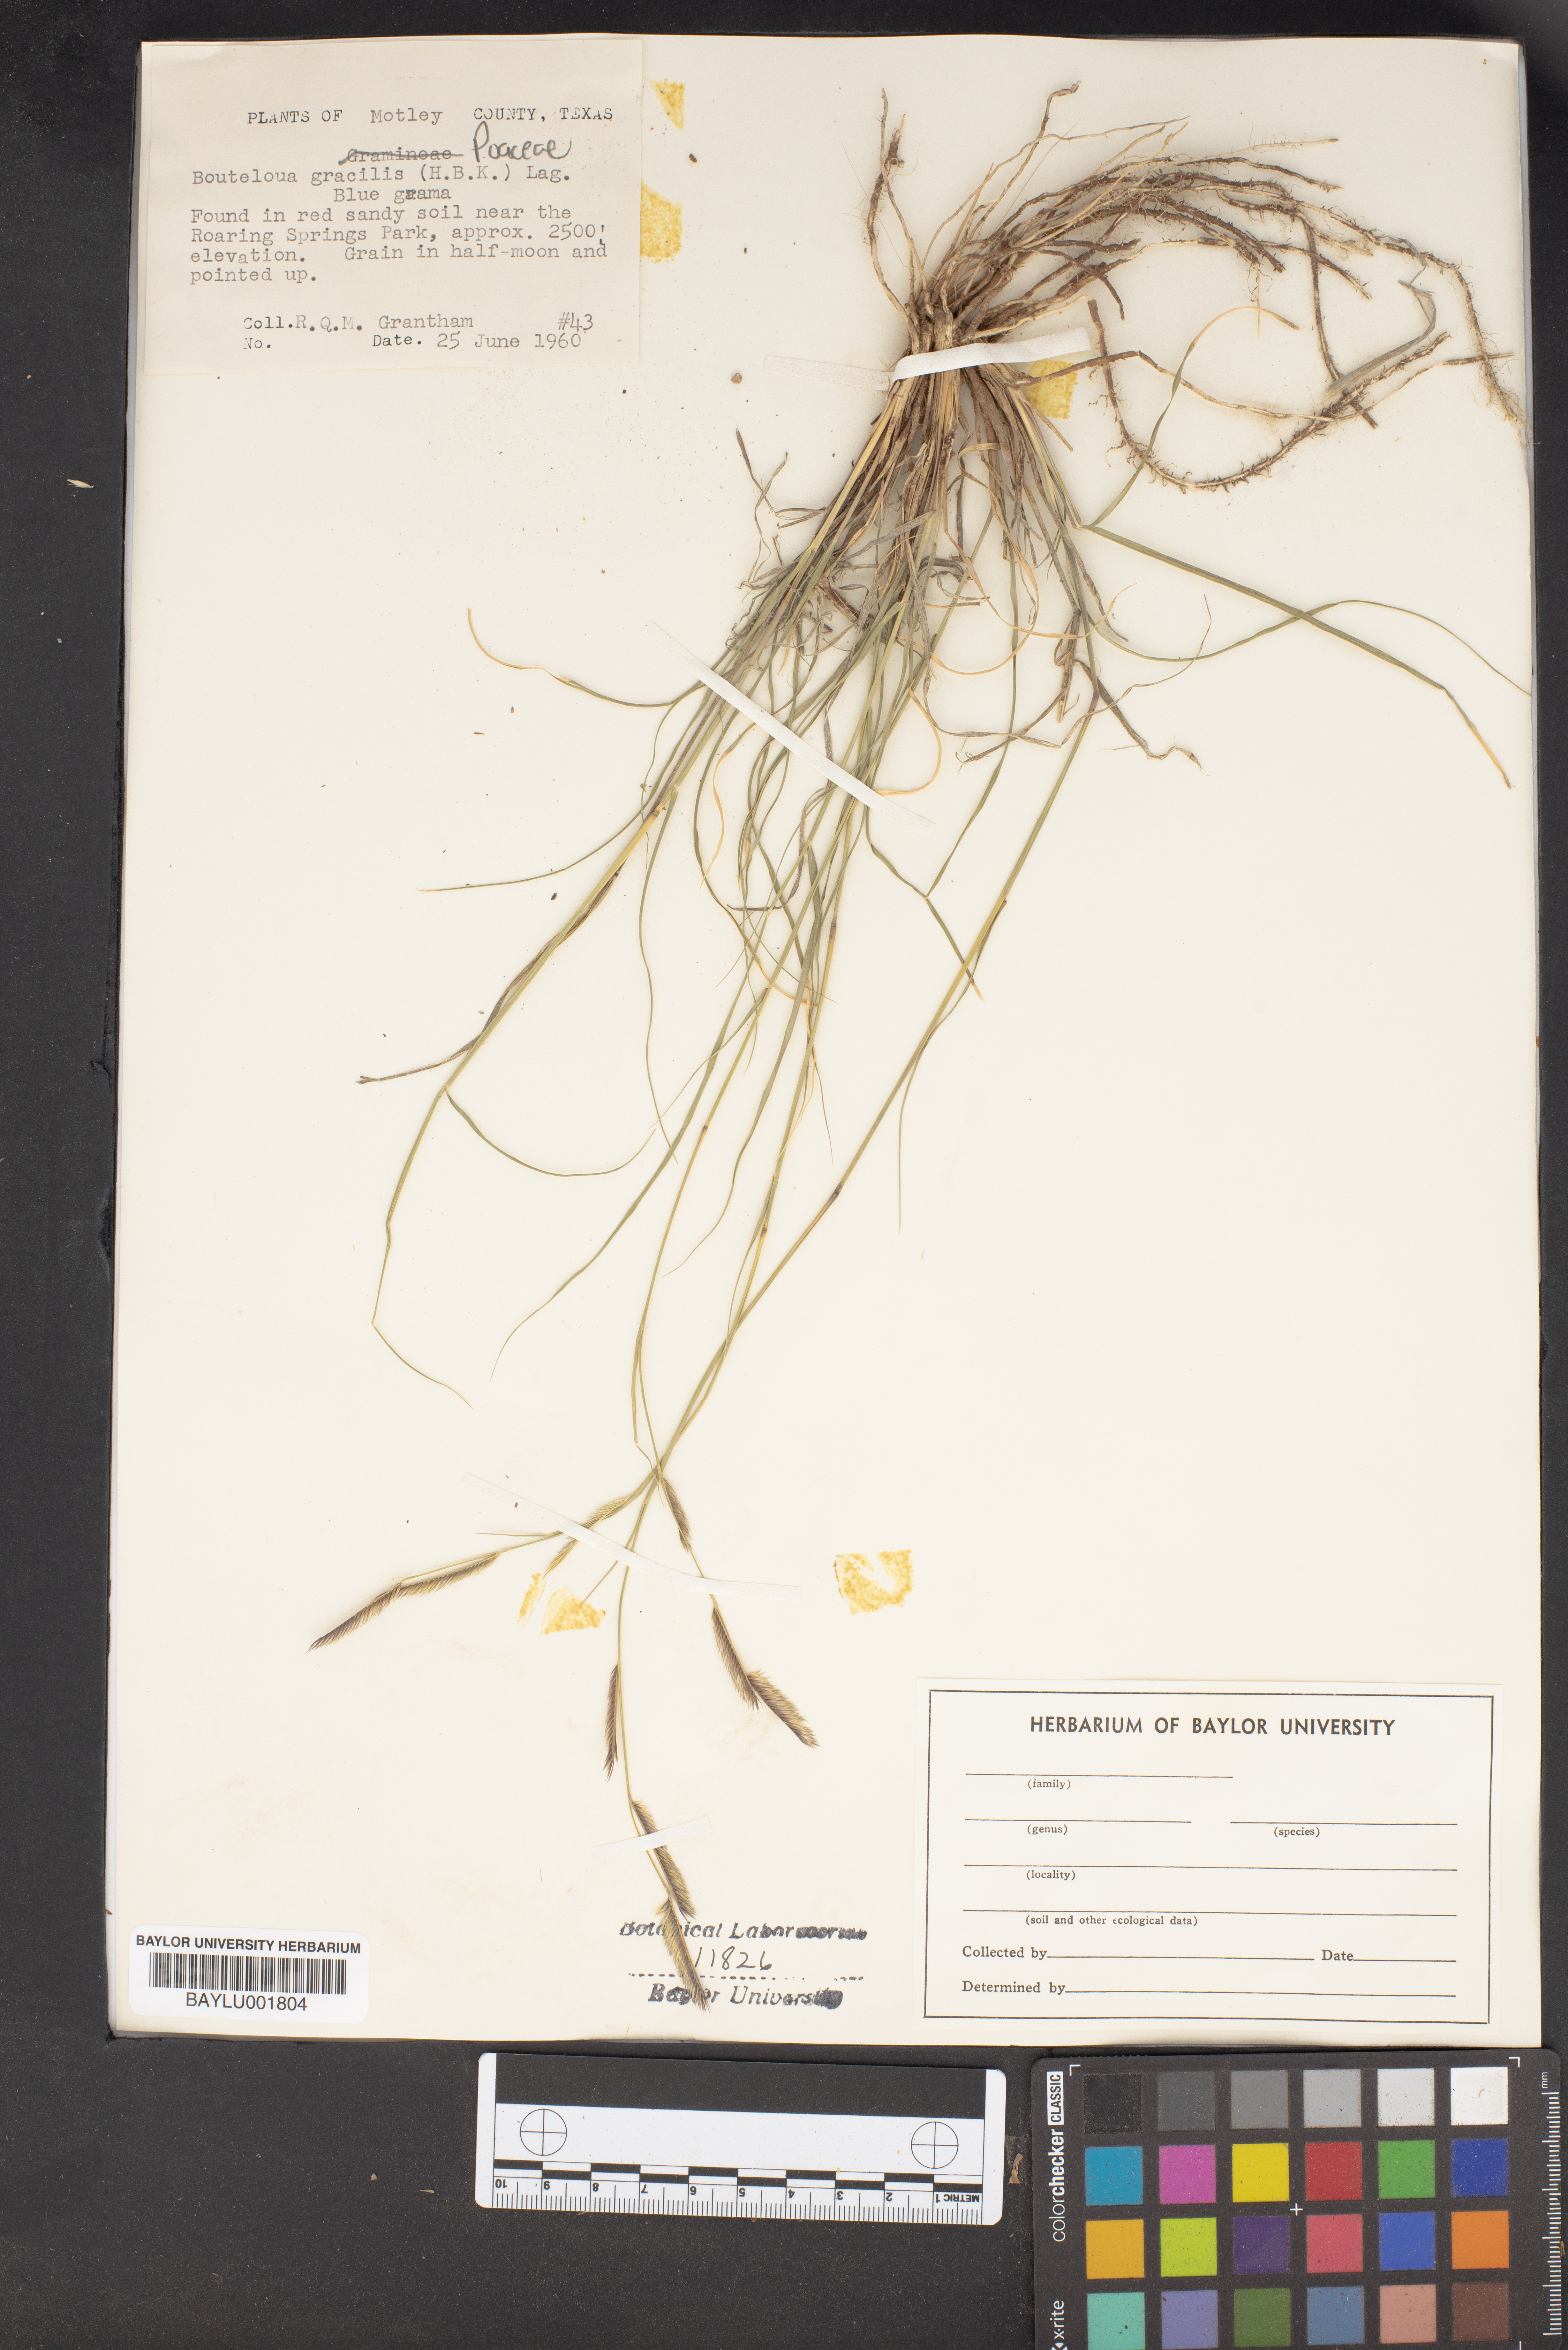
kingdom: Plantae
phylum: Tracheophyta
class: Liliopsida
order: Poales
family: Poaceae
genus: Bouteloua
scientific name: Bouteloua gracilis
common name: Blue grama
